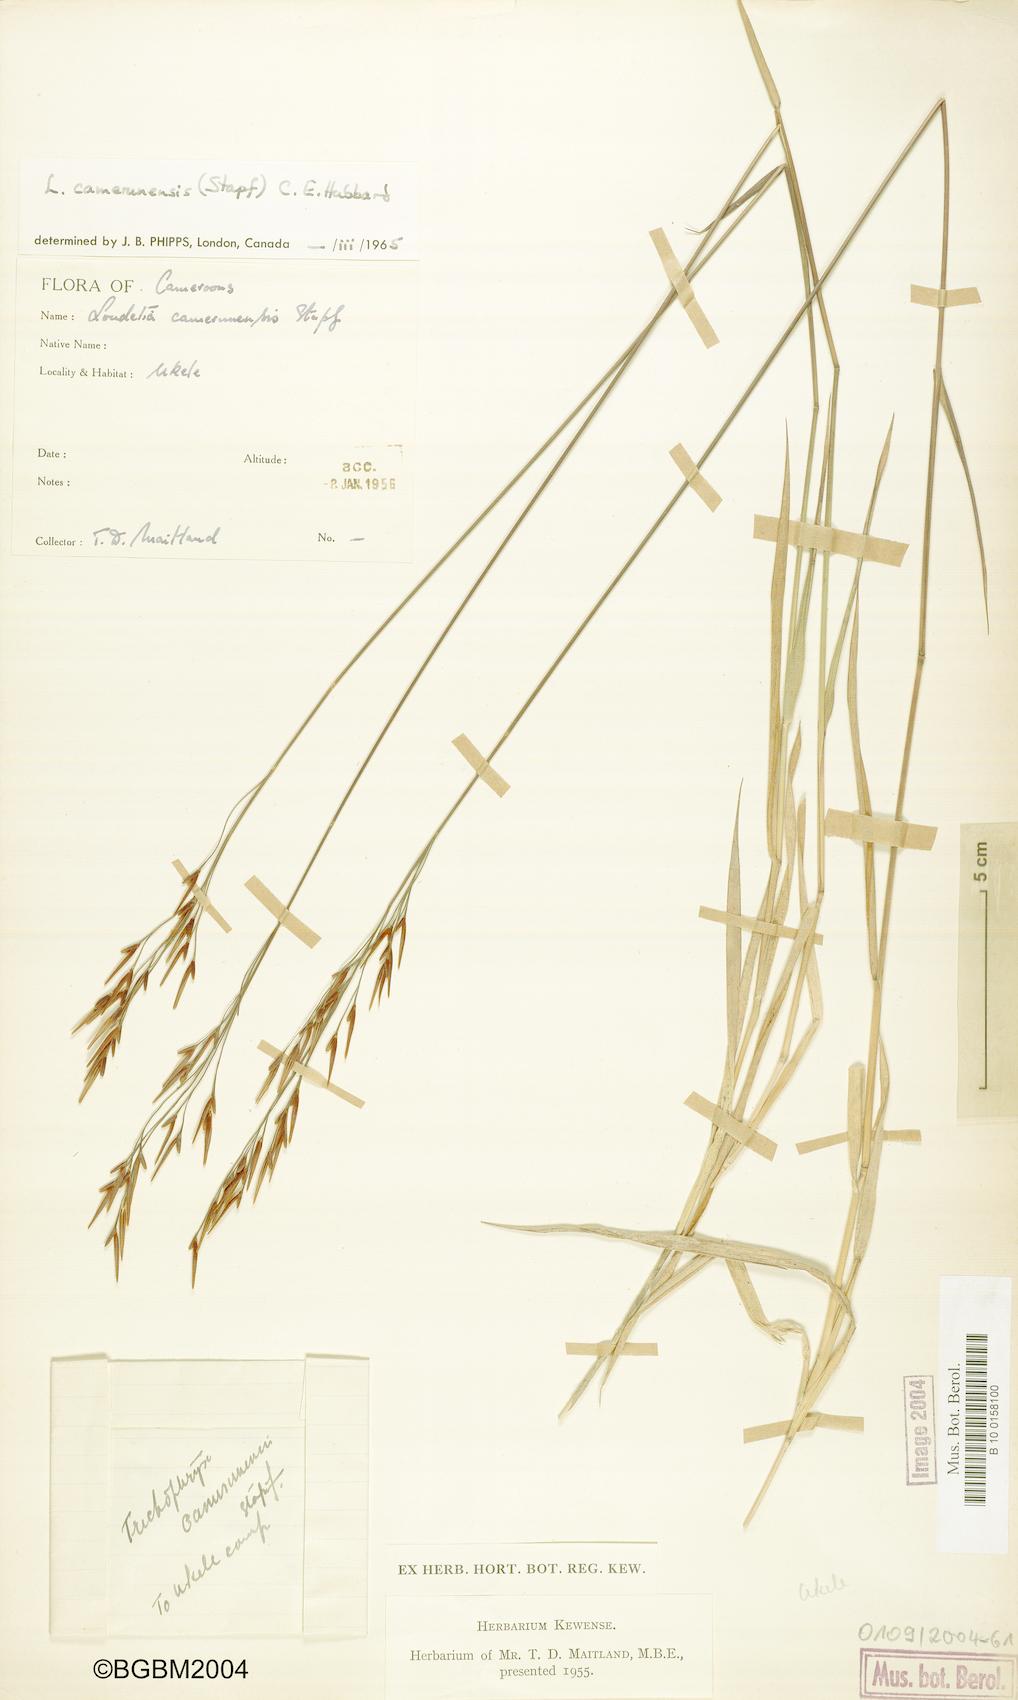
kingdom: Plantae
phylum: Tracheophyta
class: Liliopsida
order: Poales
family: Poaceae
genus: Loudetia
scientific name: Loudetia simplex
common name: Common russet grass
